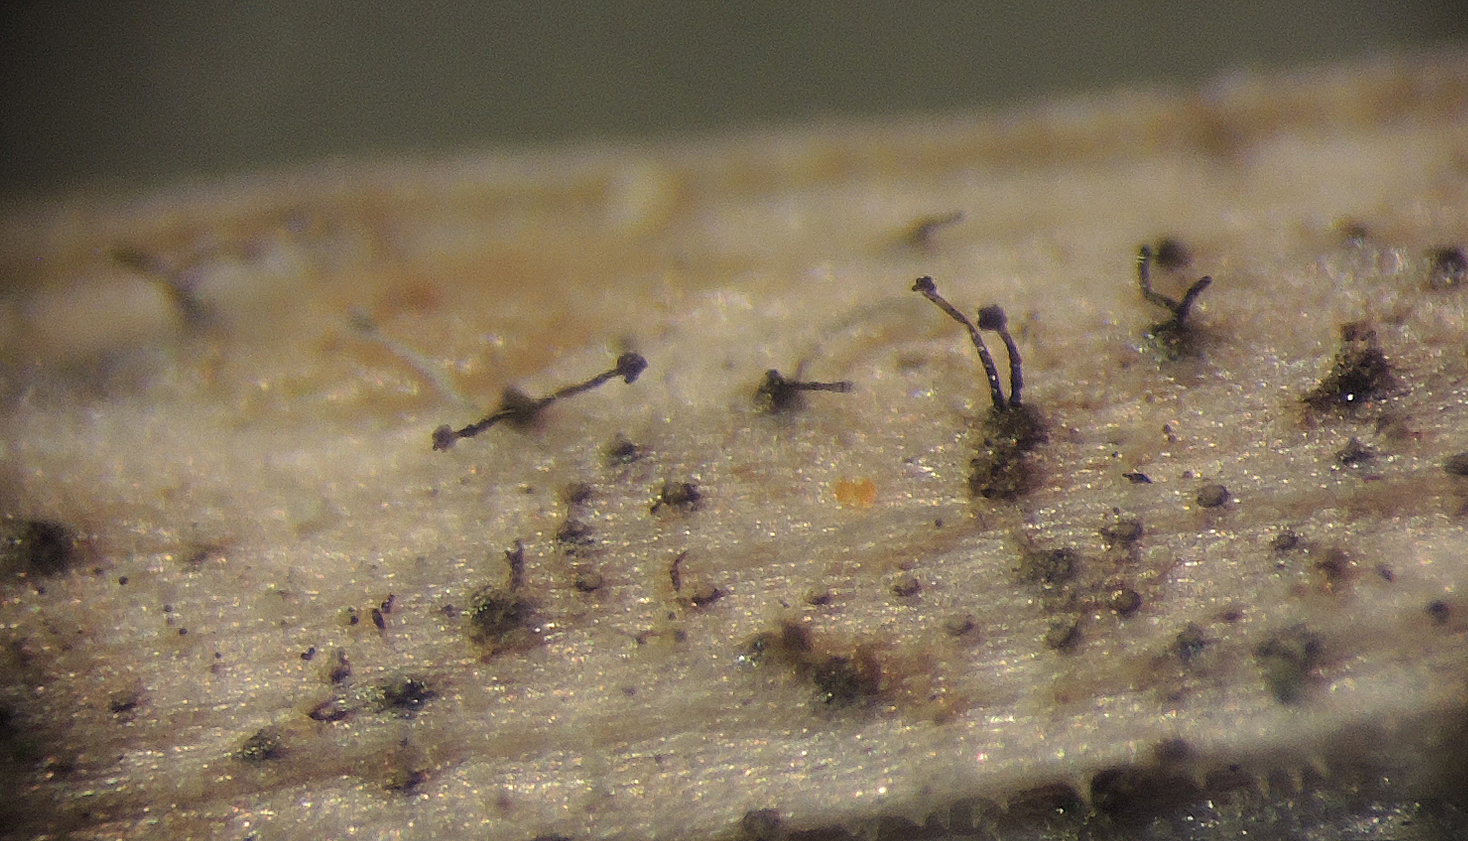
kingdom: Fungi
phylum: Ascomycota
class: Dothideomycetes
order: Pleosporales
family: Periconiaceae
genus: Periconia
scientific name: Periconia cookei
